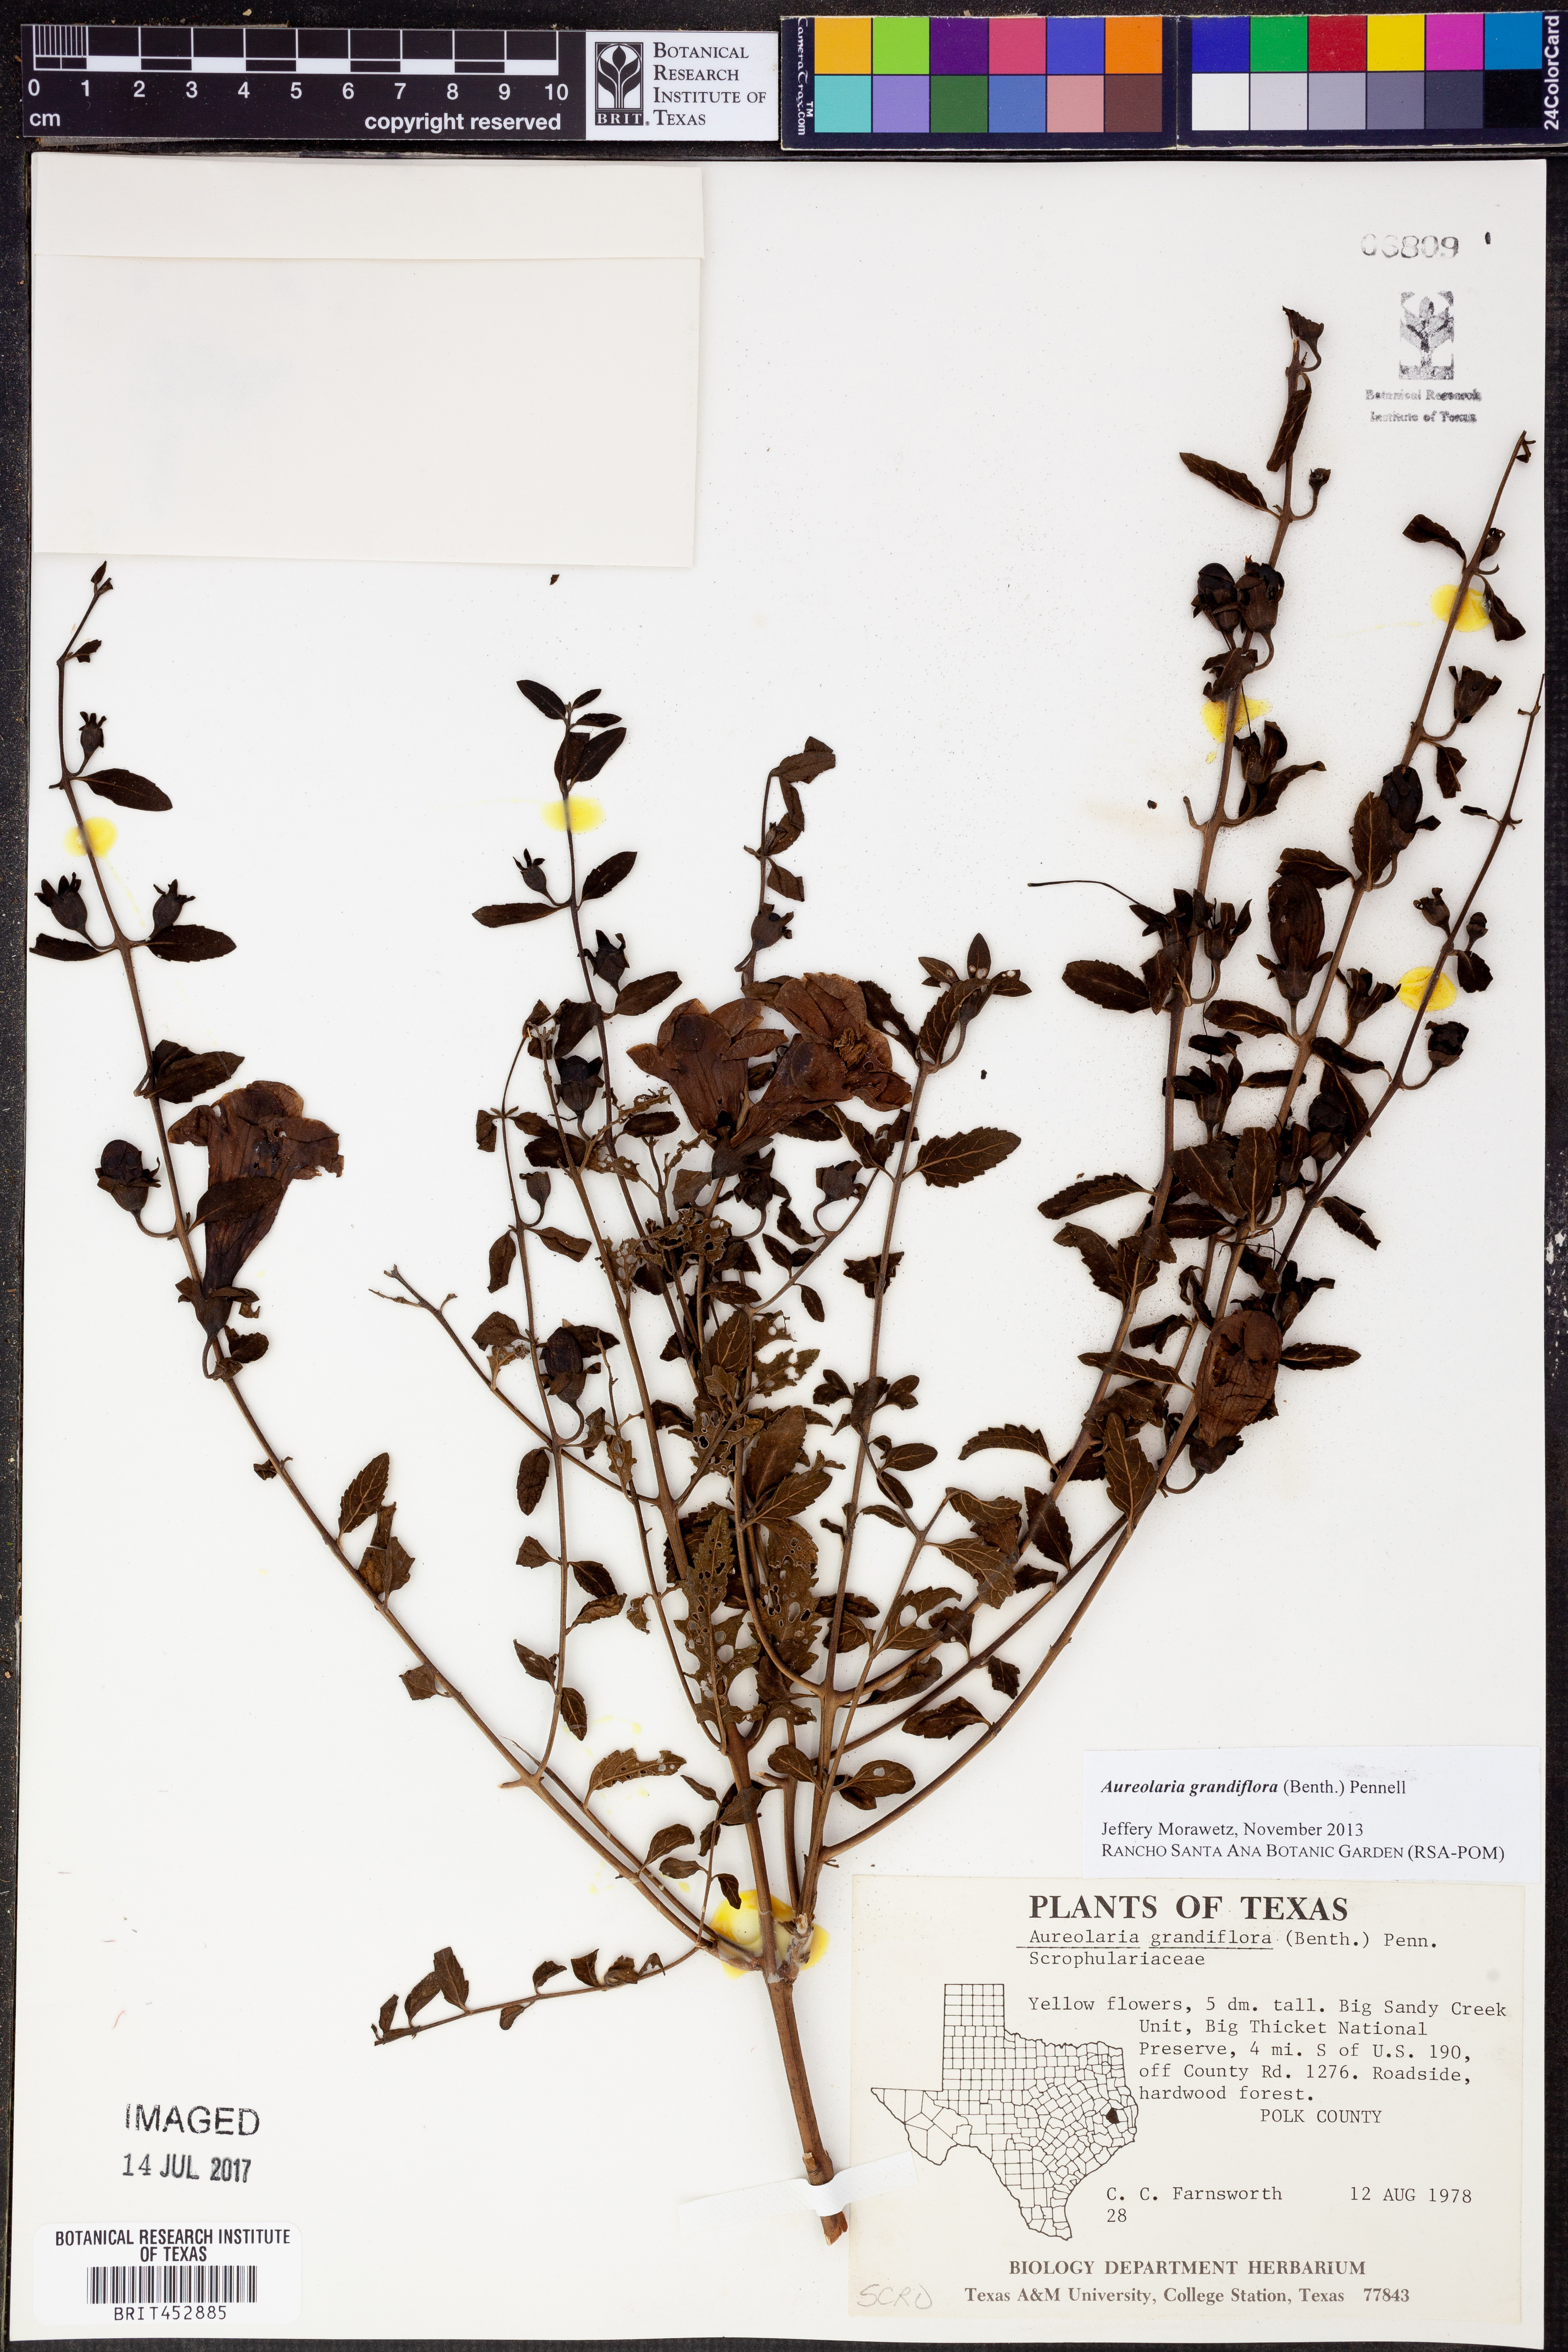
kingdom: Plantae
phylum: Tracheophyta
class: Magnoliopsida
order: Lamiales
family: Orobanchaceae
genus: Aureolaria
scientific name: Aureolaria grandiflora
